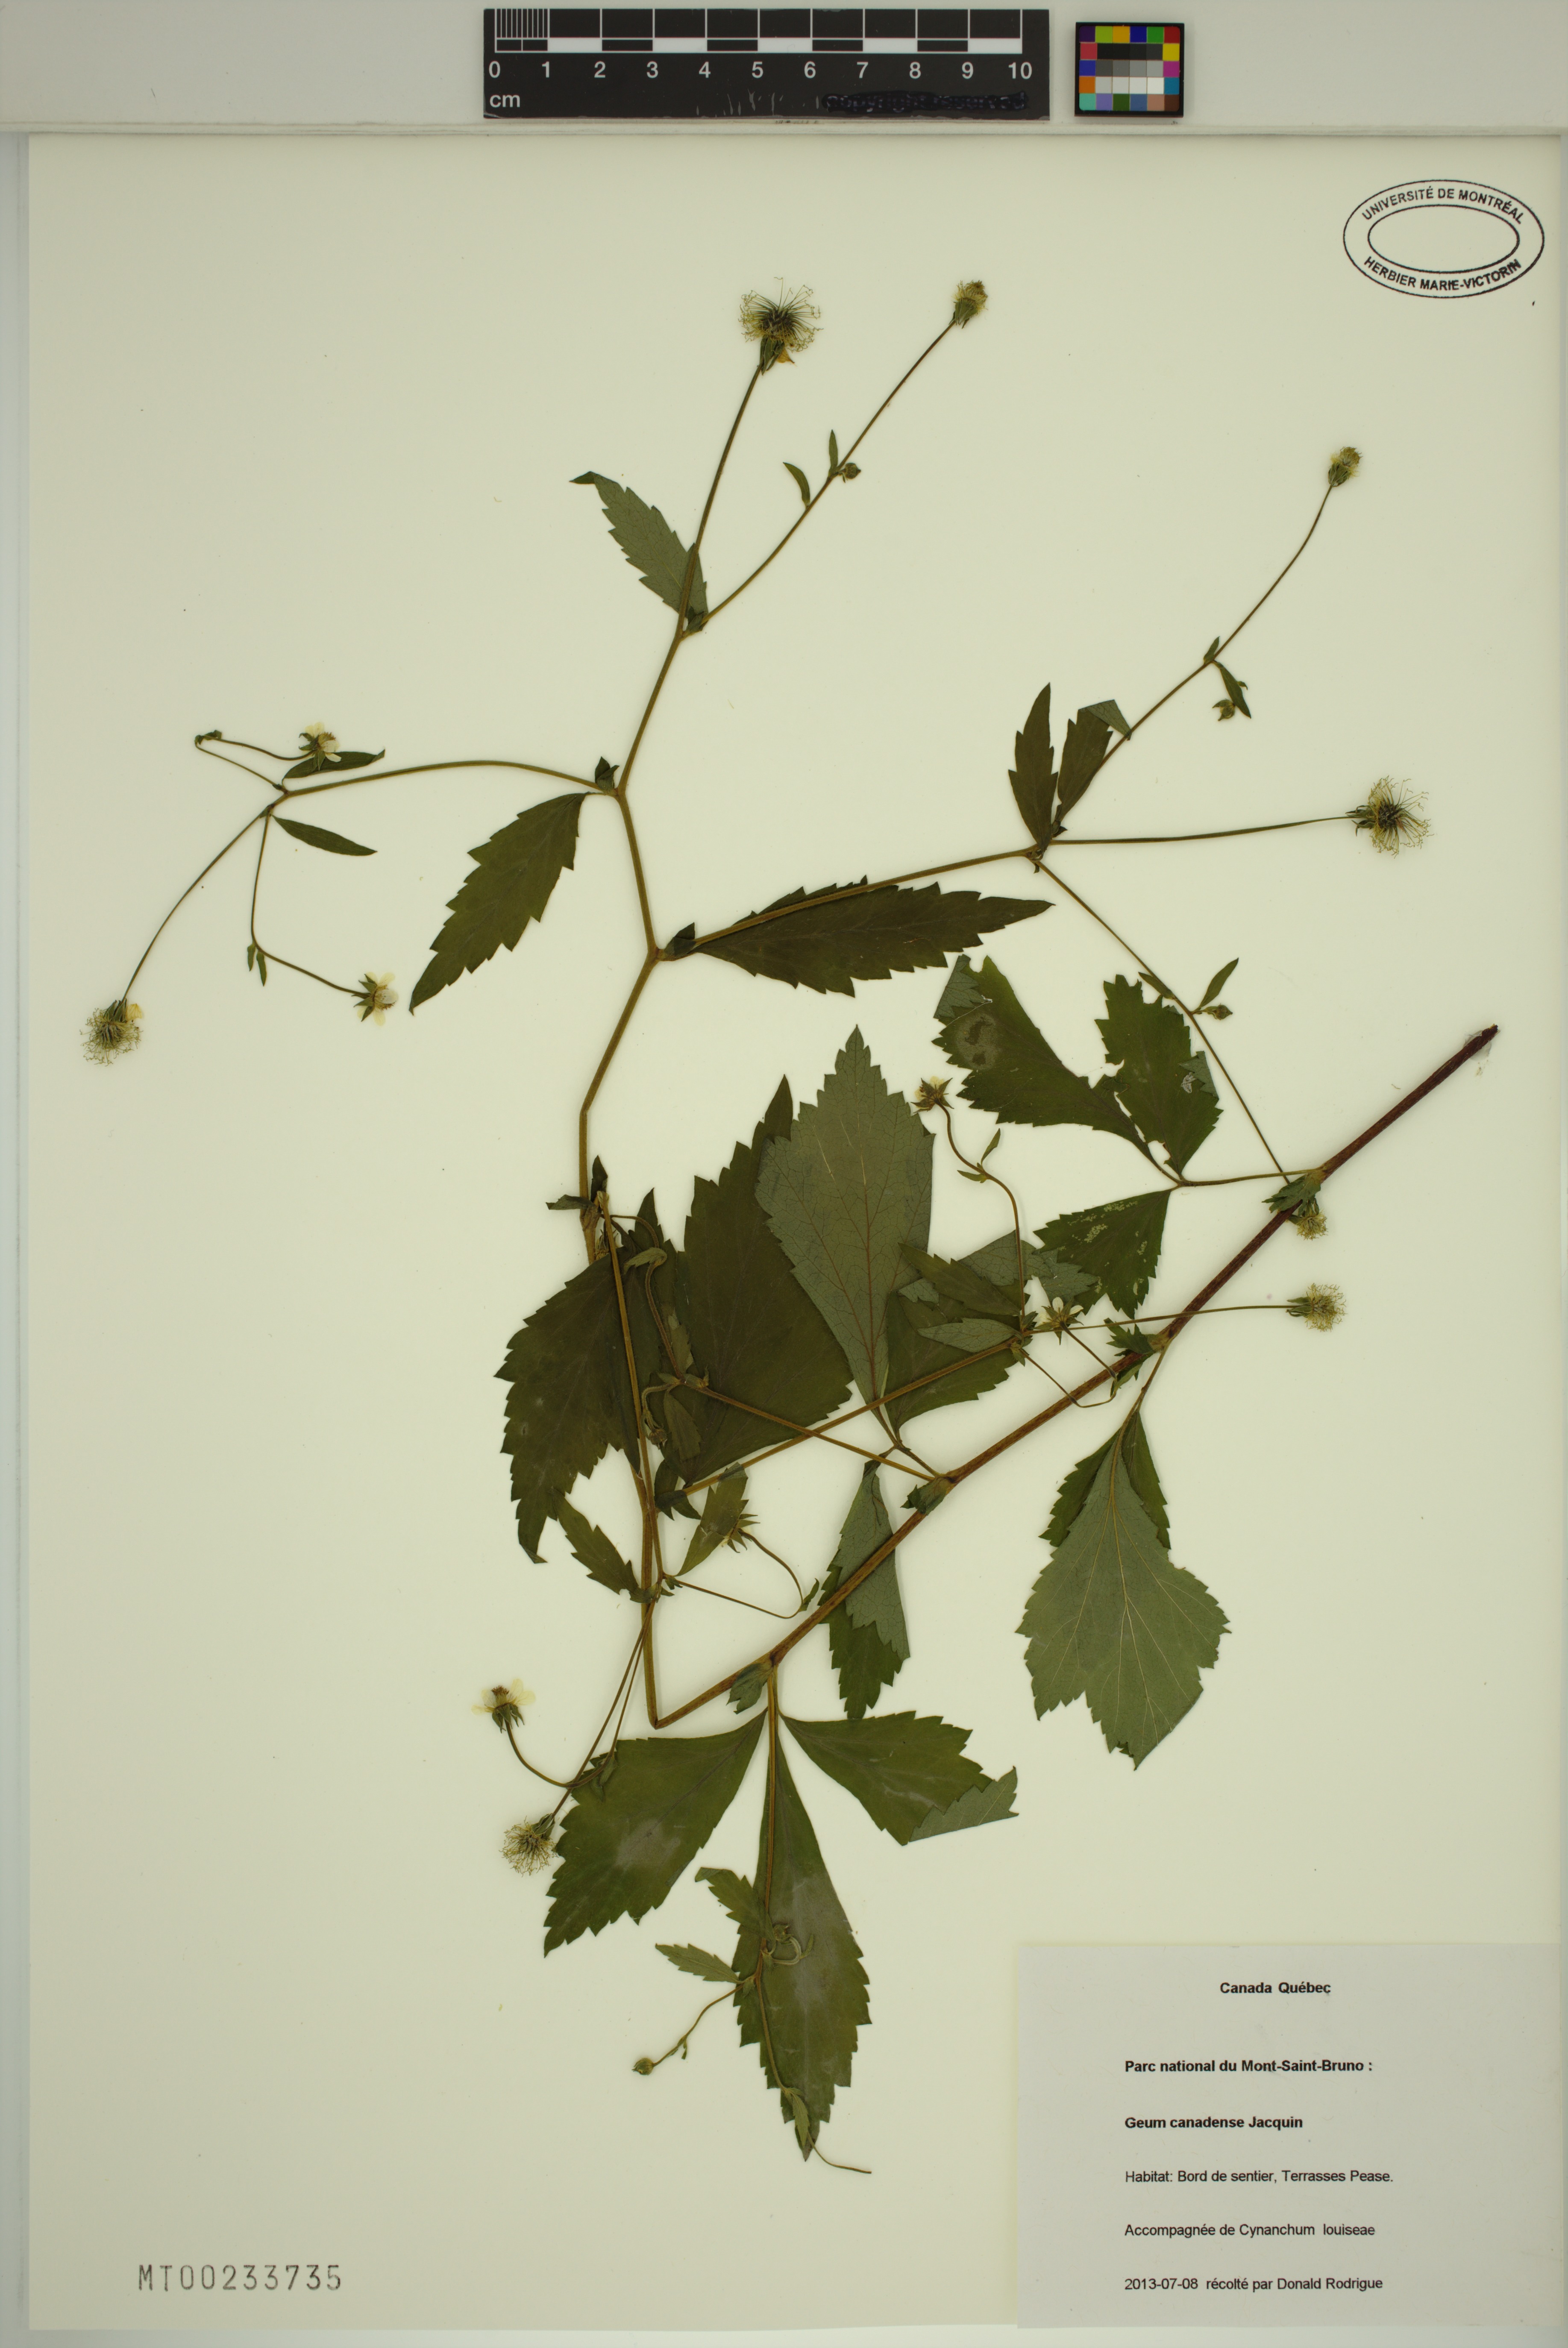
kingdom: Plantae
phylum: Tracheophyta
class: Magnoliopsida
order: Rosales
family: Rosaceae
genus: Geum
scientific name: Geum canadense
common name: White avens
